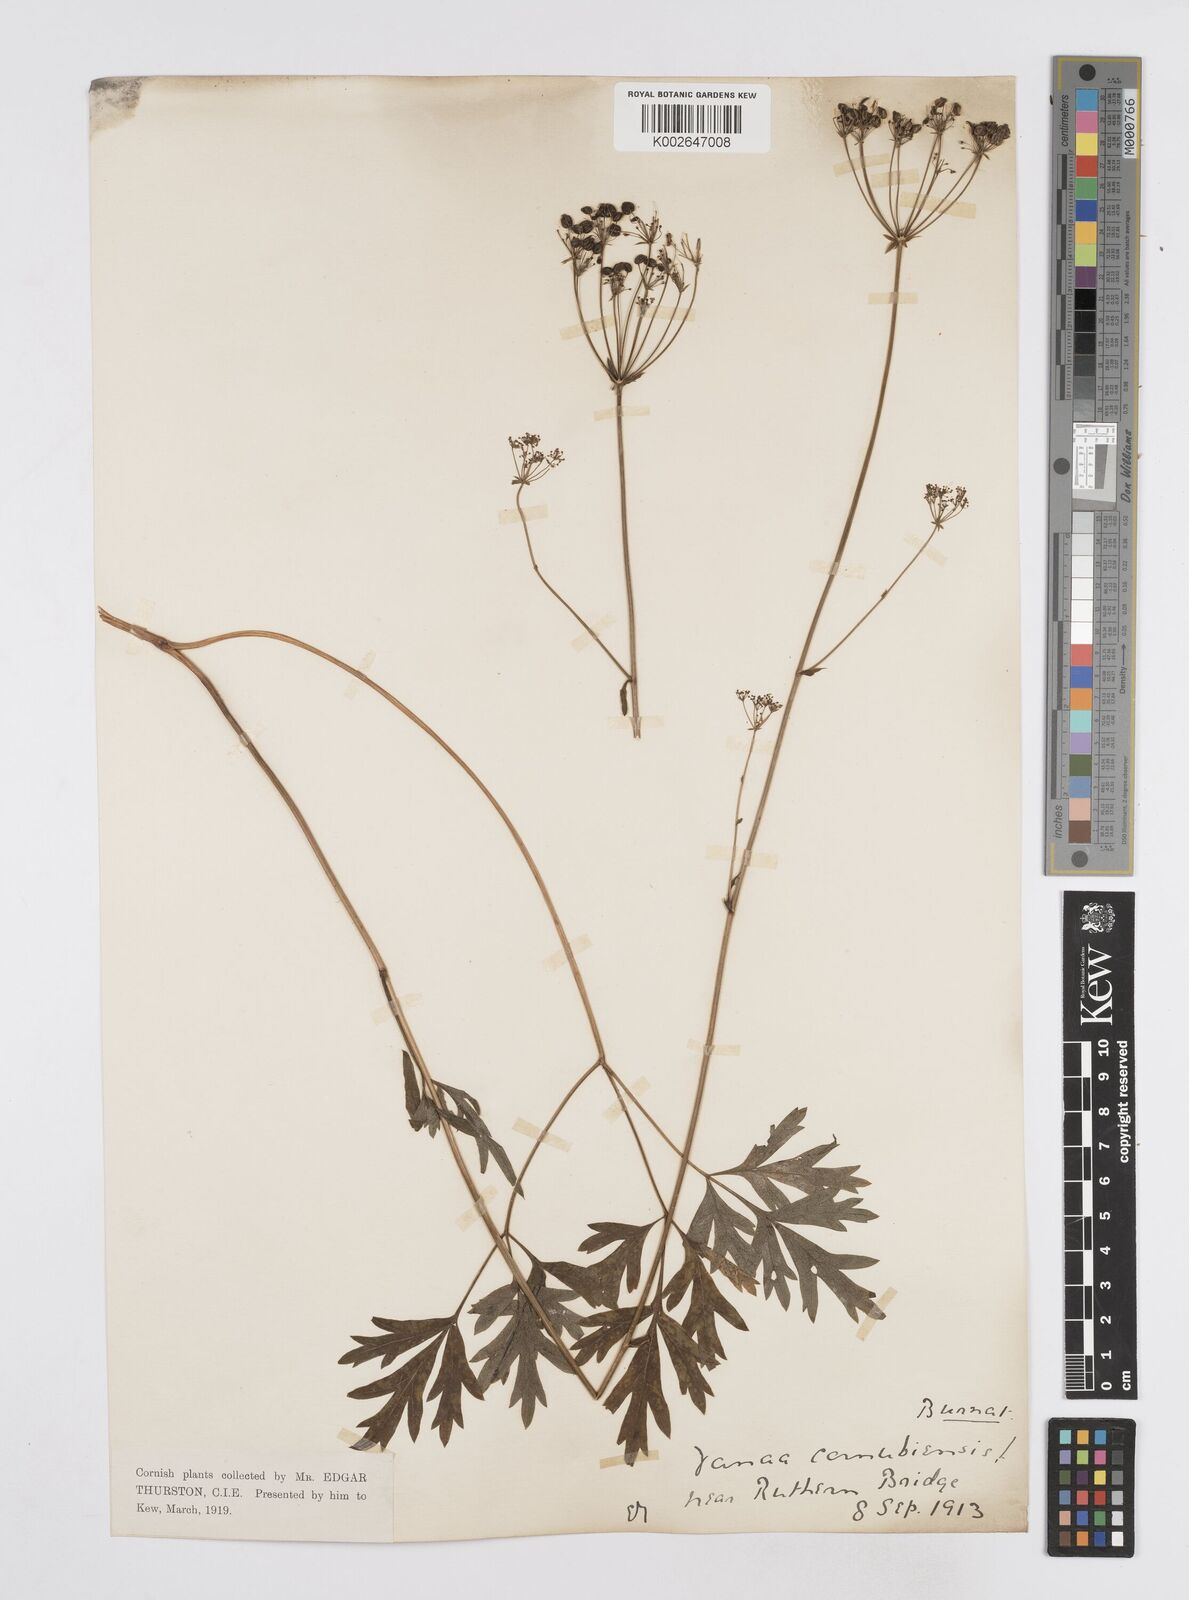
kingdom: Plantae
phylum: Tracheophyta
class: Magnoliopsida
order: Apiales
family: Apiaceae
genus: Physospermum
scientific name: Physospermum cornubiense
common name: Bladderseed
